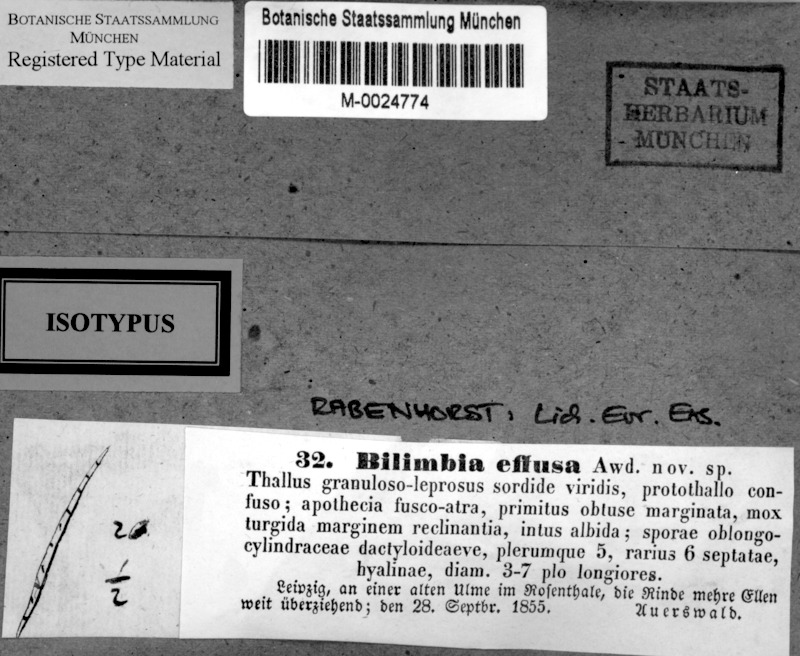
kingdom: Fungi
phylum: Ascomycota
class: Lecanoromycetes
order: Lecanorales
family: Ramalinaceae
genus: Bacidia
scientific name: Bacidia rubella
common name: Frosty-rimmed dot lichen
